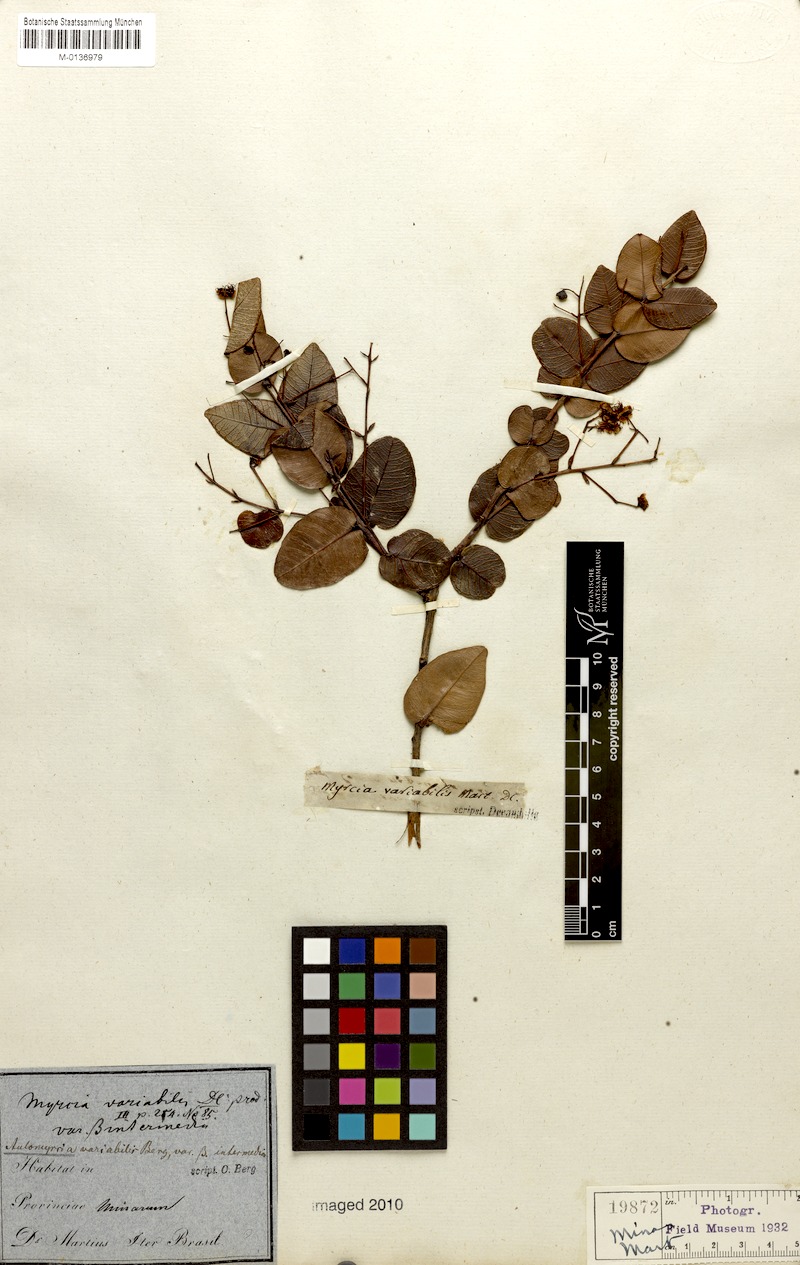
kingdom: Plantae
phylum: Tracheophyta
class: Magnoliopsida
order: Myrtales
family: Myrtaceae
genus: Myrcia
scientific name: Myrcia variabilis
